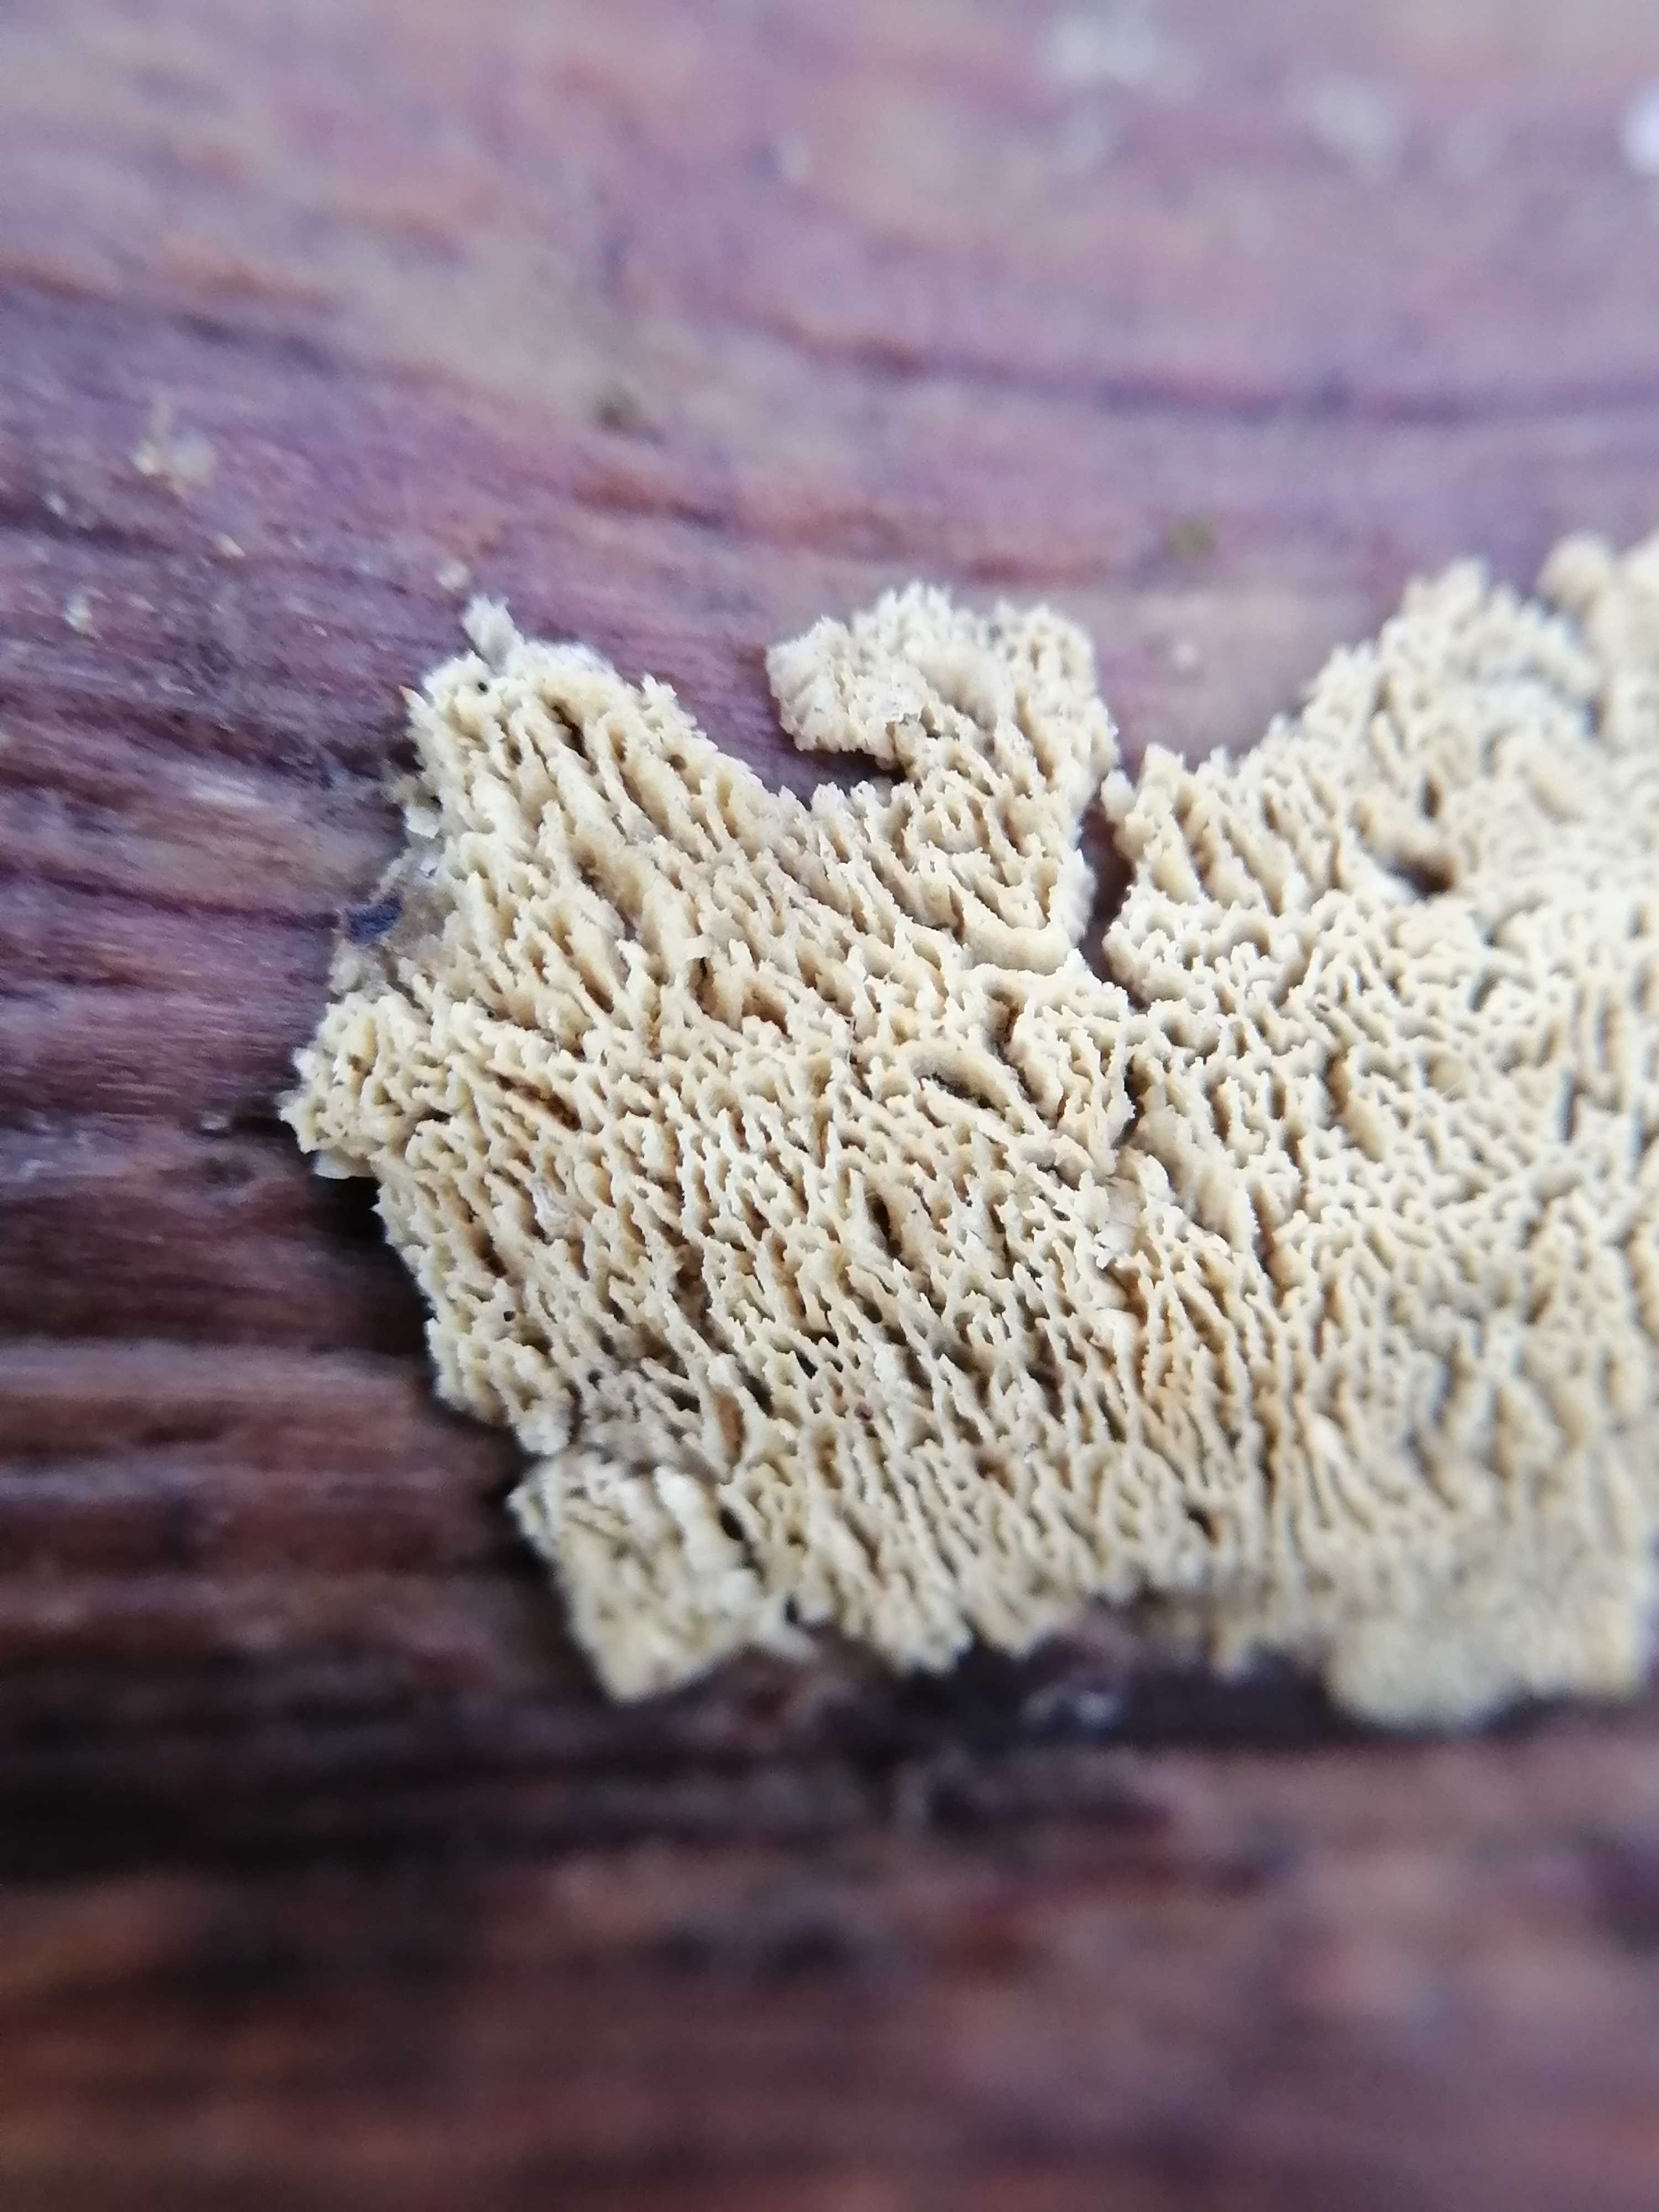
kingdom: Fungi
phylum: Basidiomycota
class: Agaricomycetes
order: Hymenochaetales
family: Schizoporaceae
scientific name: Schizoporaceae
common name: tandsvampfamilien
